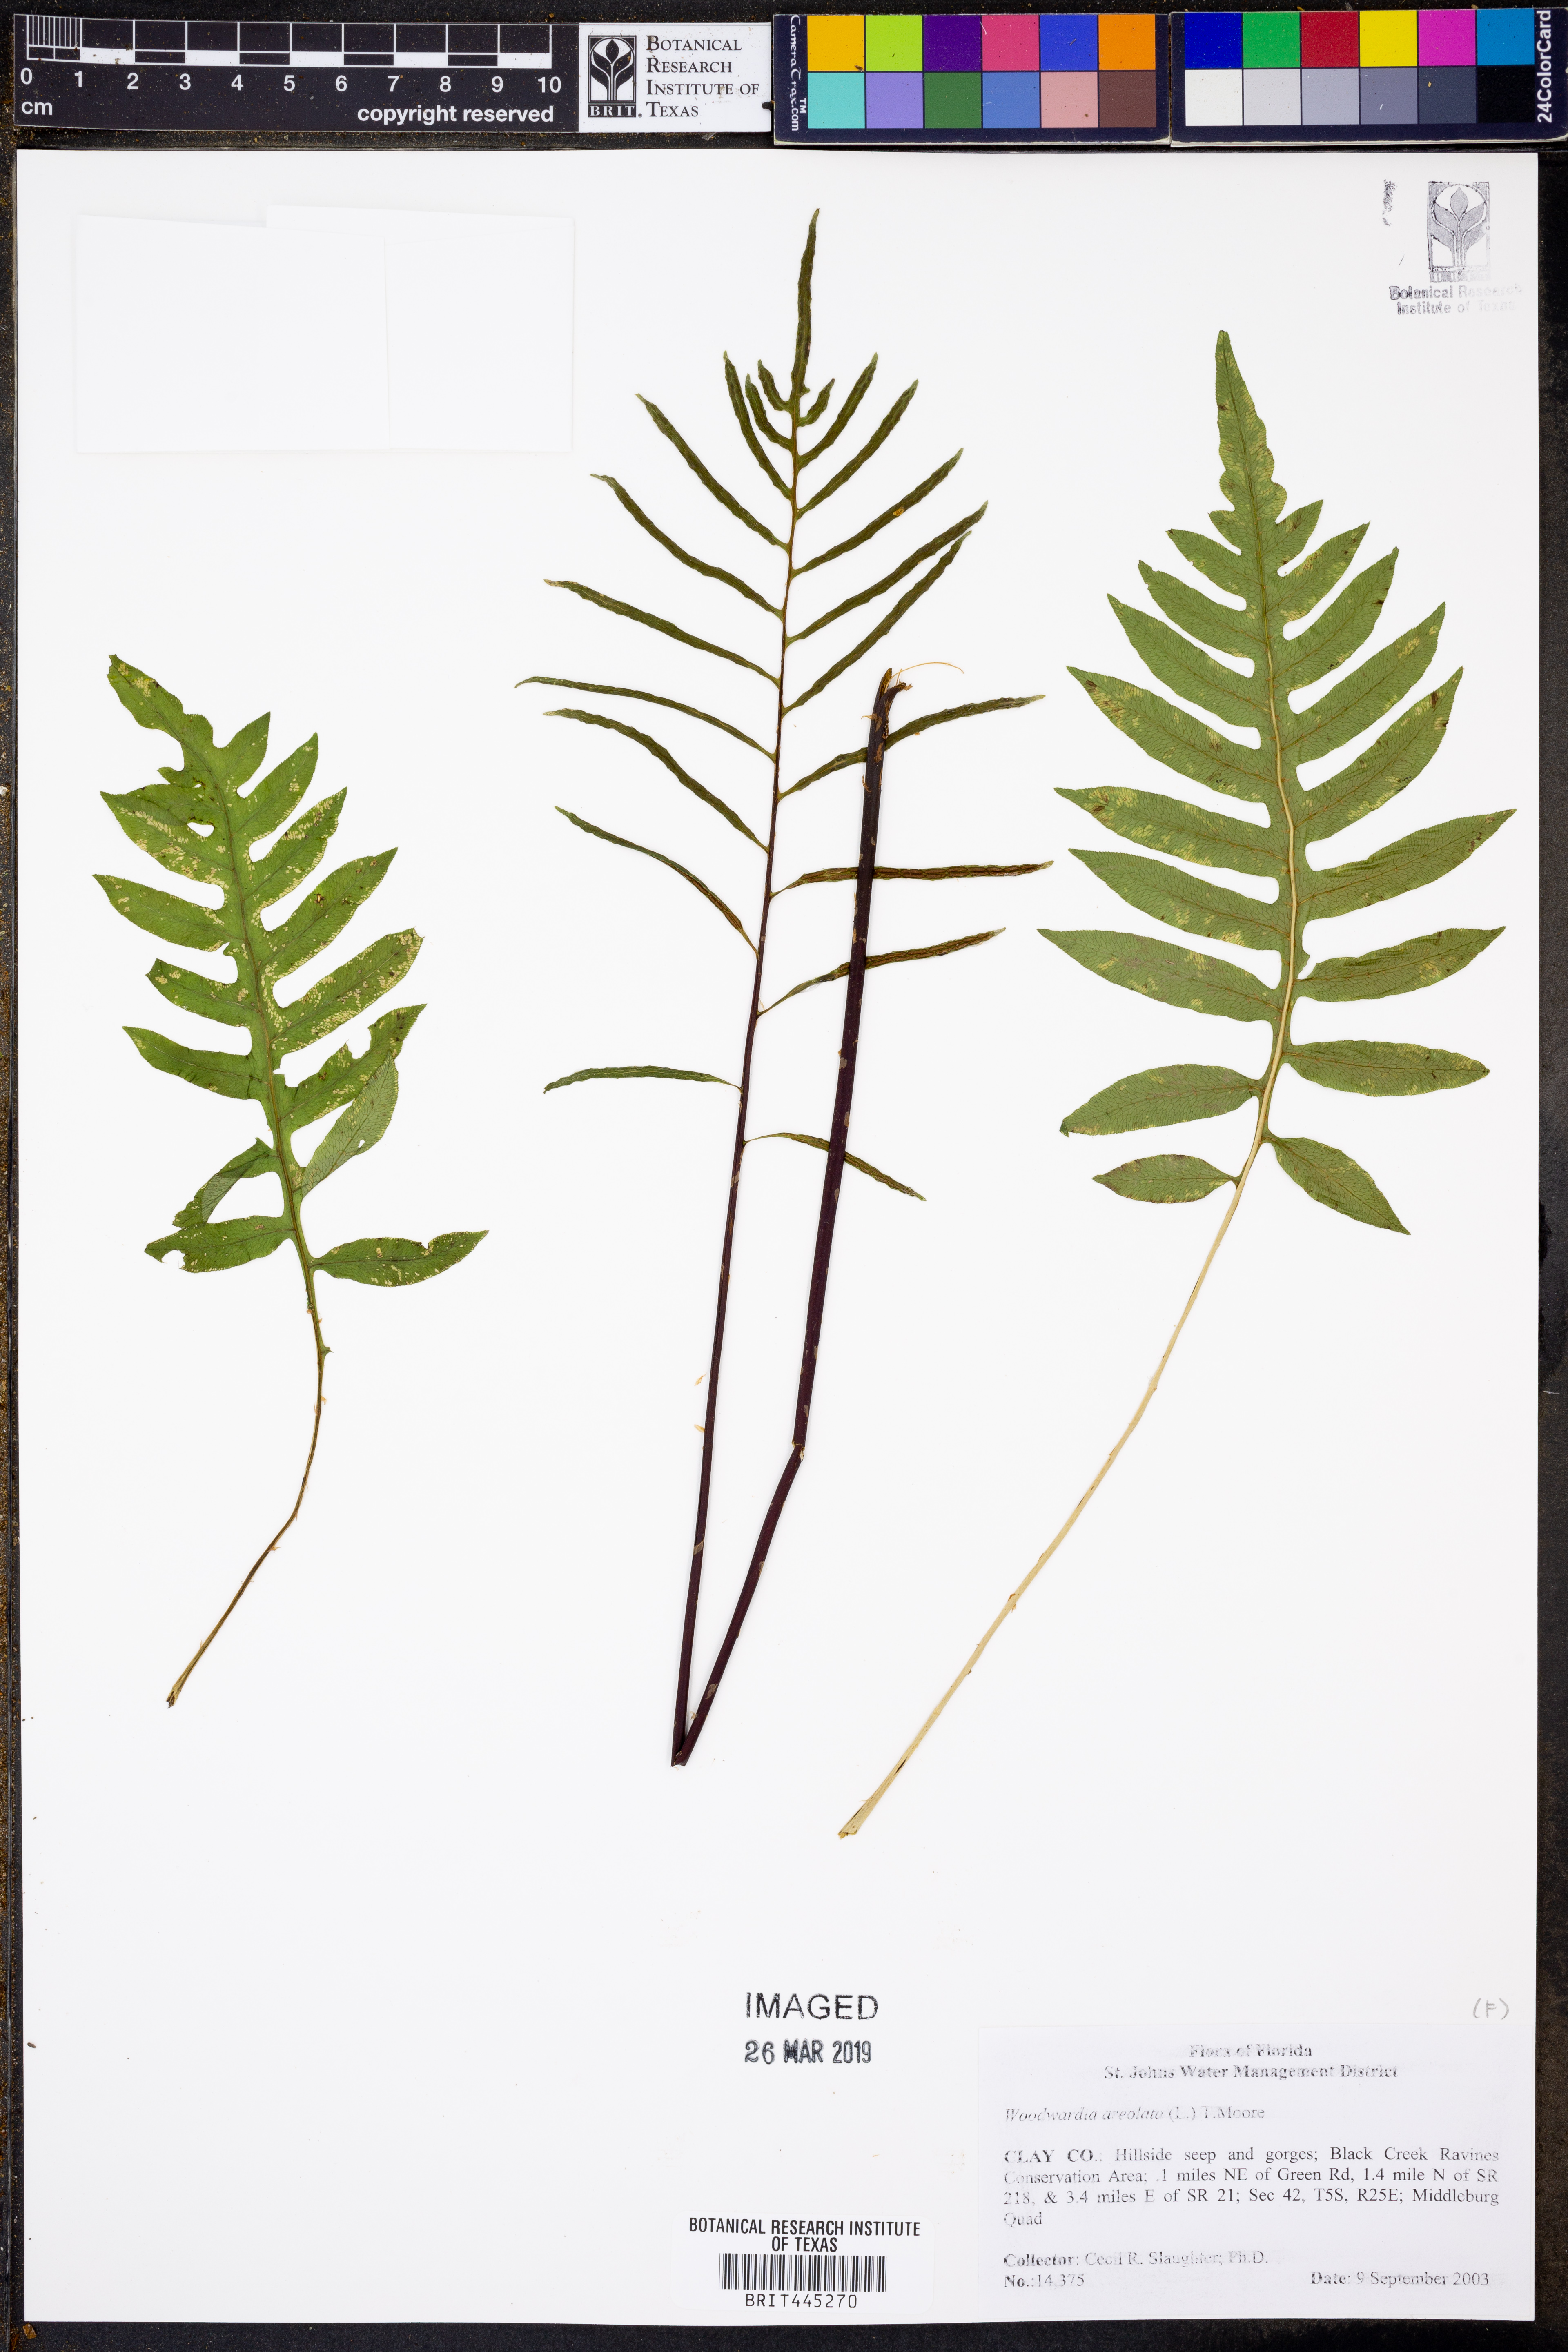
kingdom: Plantae
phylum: Tracheophyta
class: Polypodiopsida
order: Polypodiales
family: Blechnaceae
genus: Lorinseria
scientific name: Lorinseria areolata
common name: Dwarf chain fern
